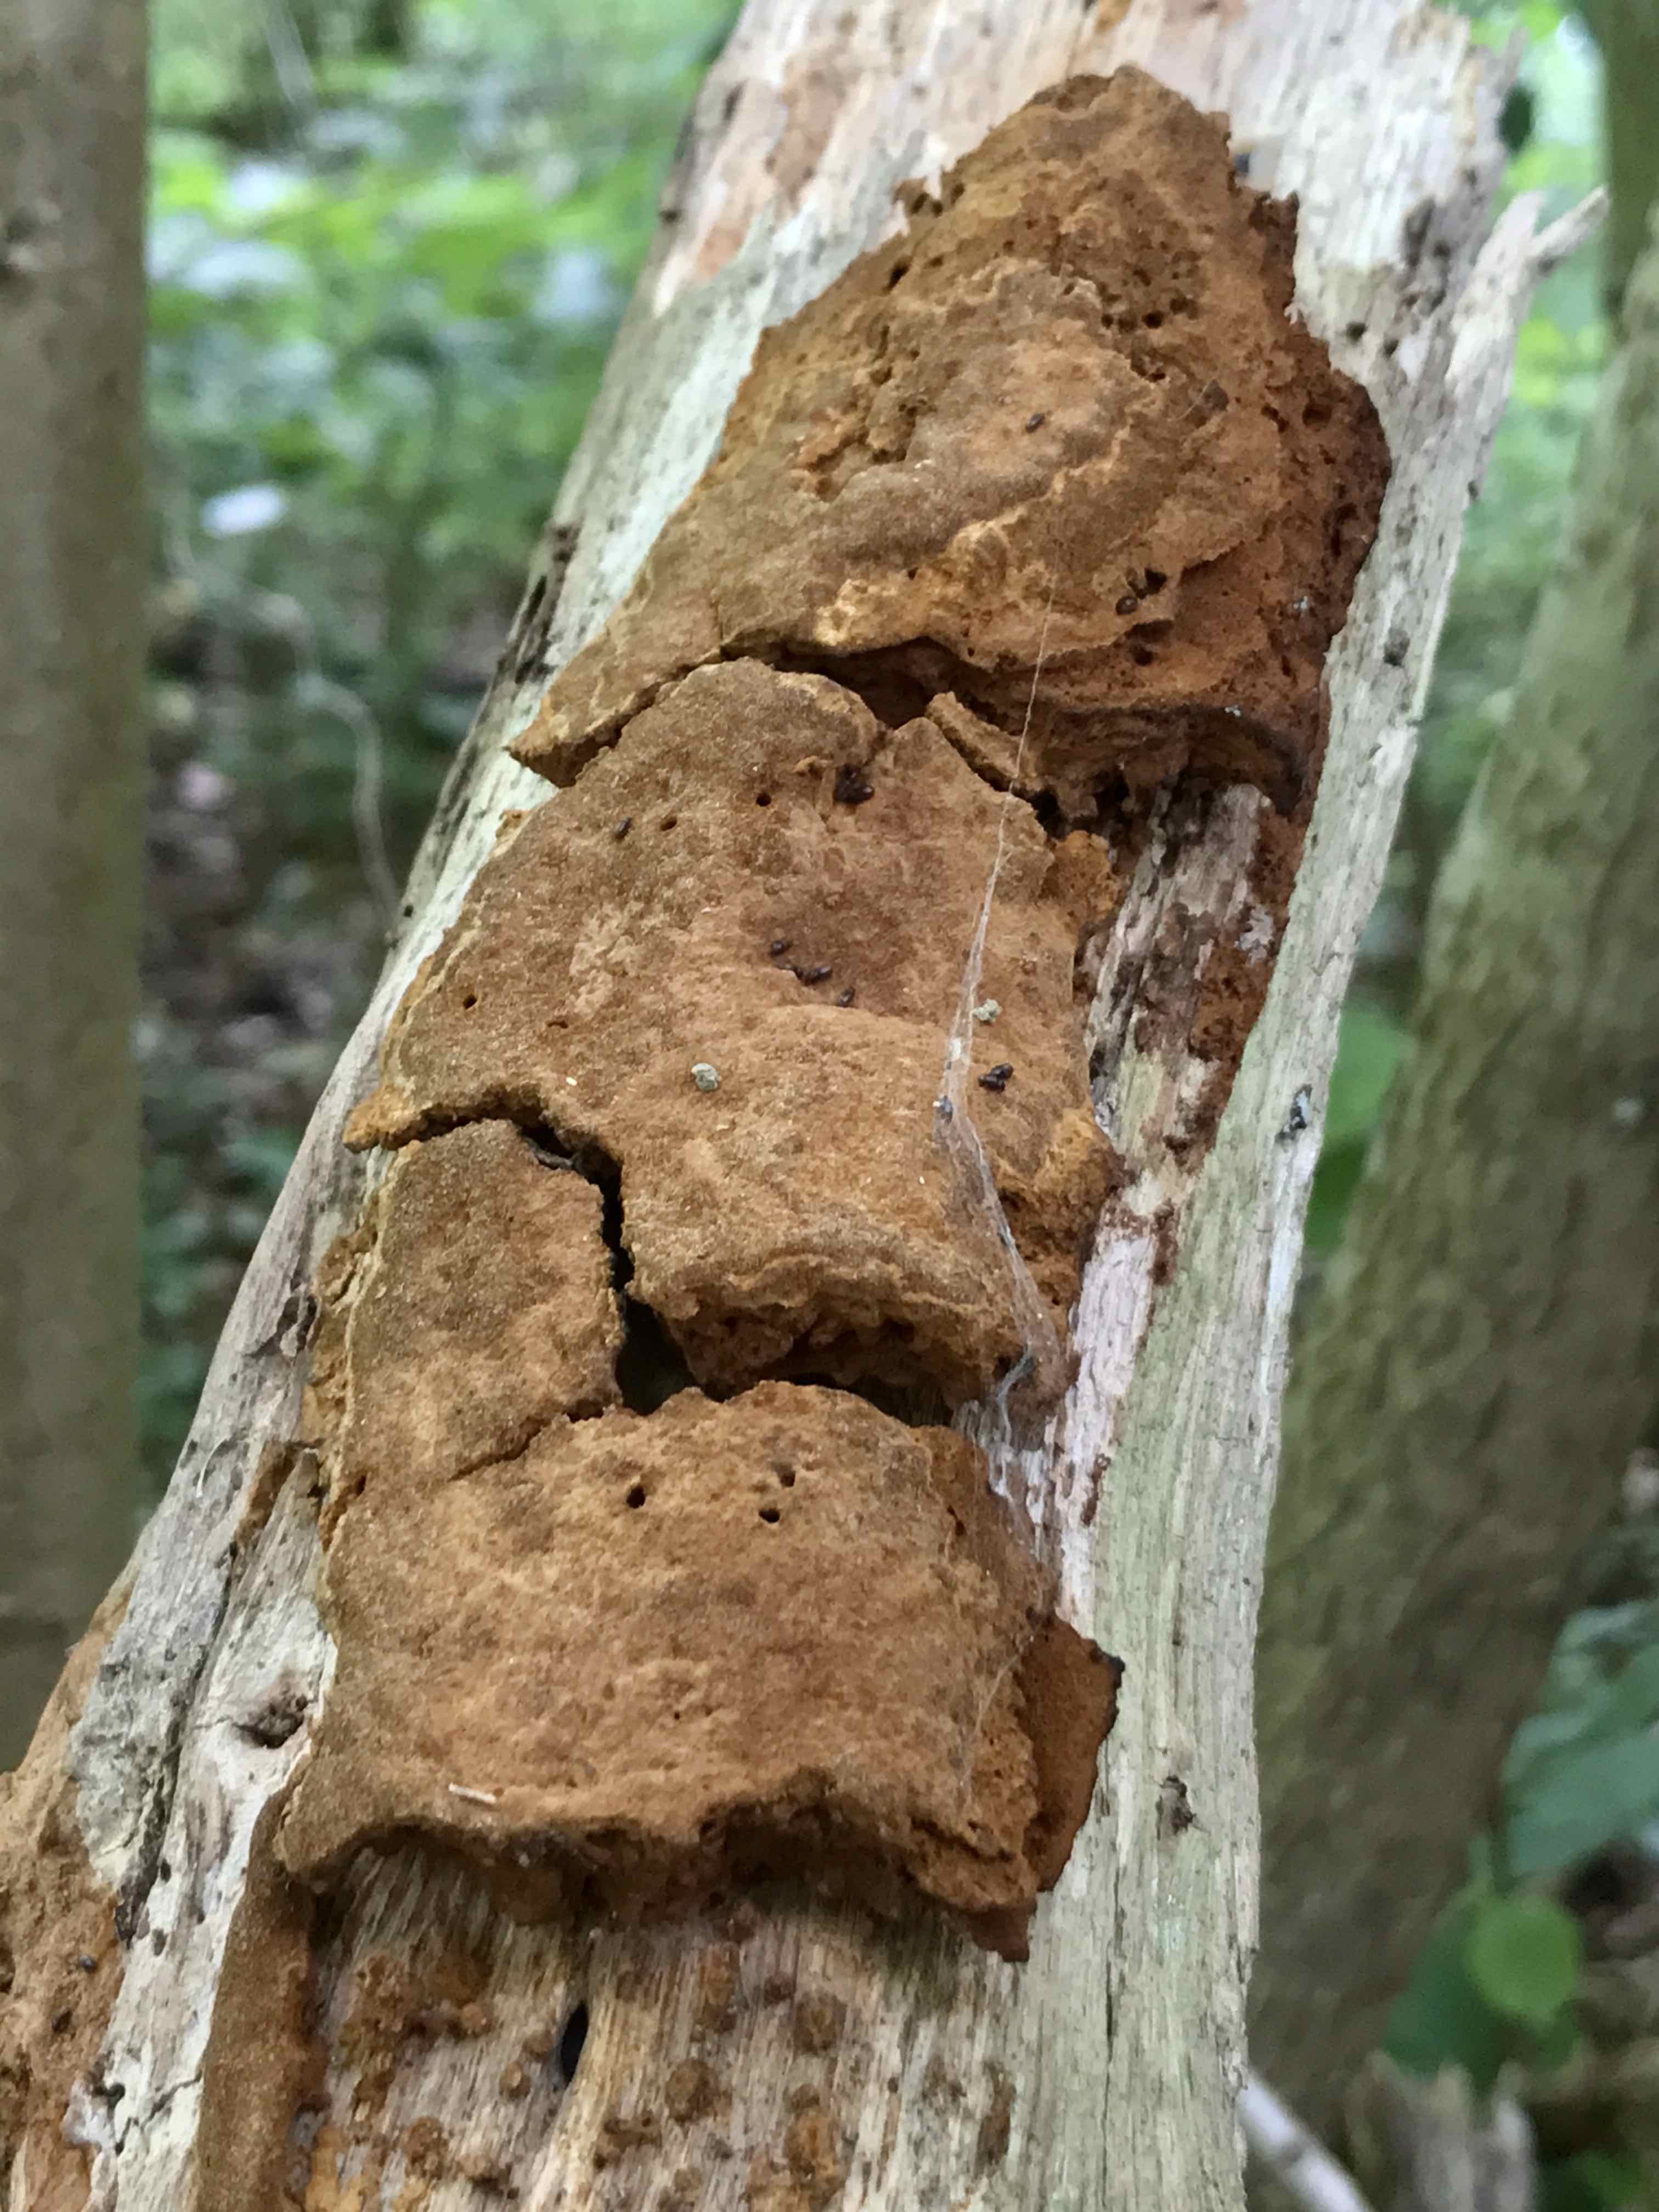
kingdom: Fungi
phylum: Basidiomycota
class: Agaricomycetes
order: Hymenochaetales
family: Hymenochaetaceae
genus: Fuscoporia
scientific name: Fuscoporia ferrea
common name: skorpe-ildporesvamp
